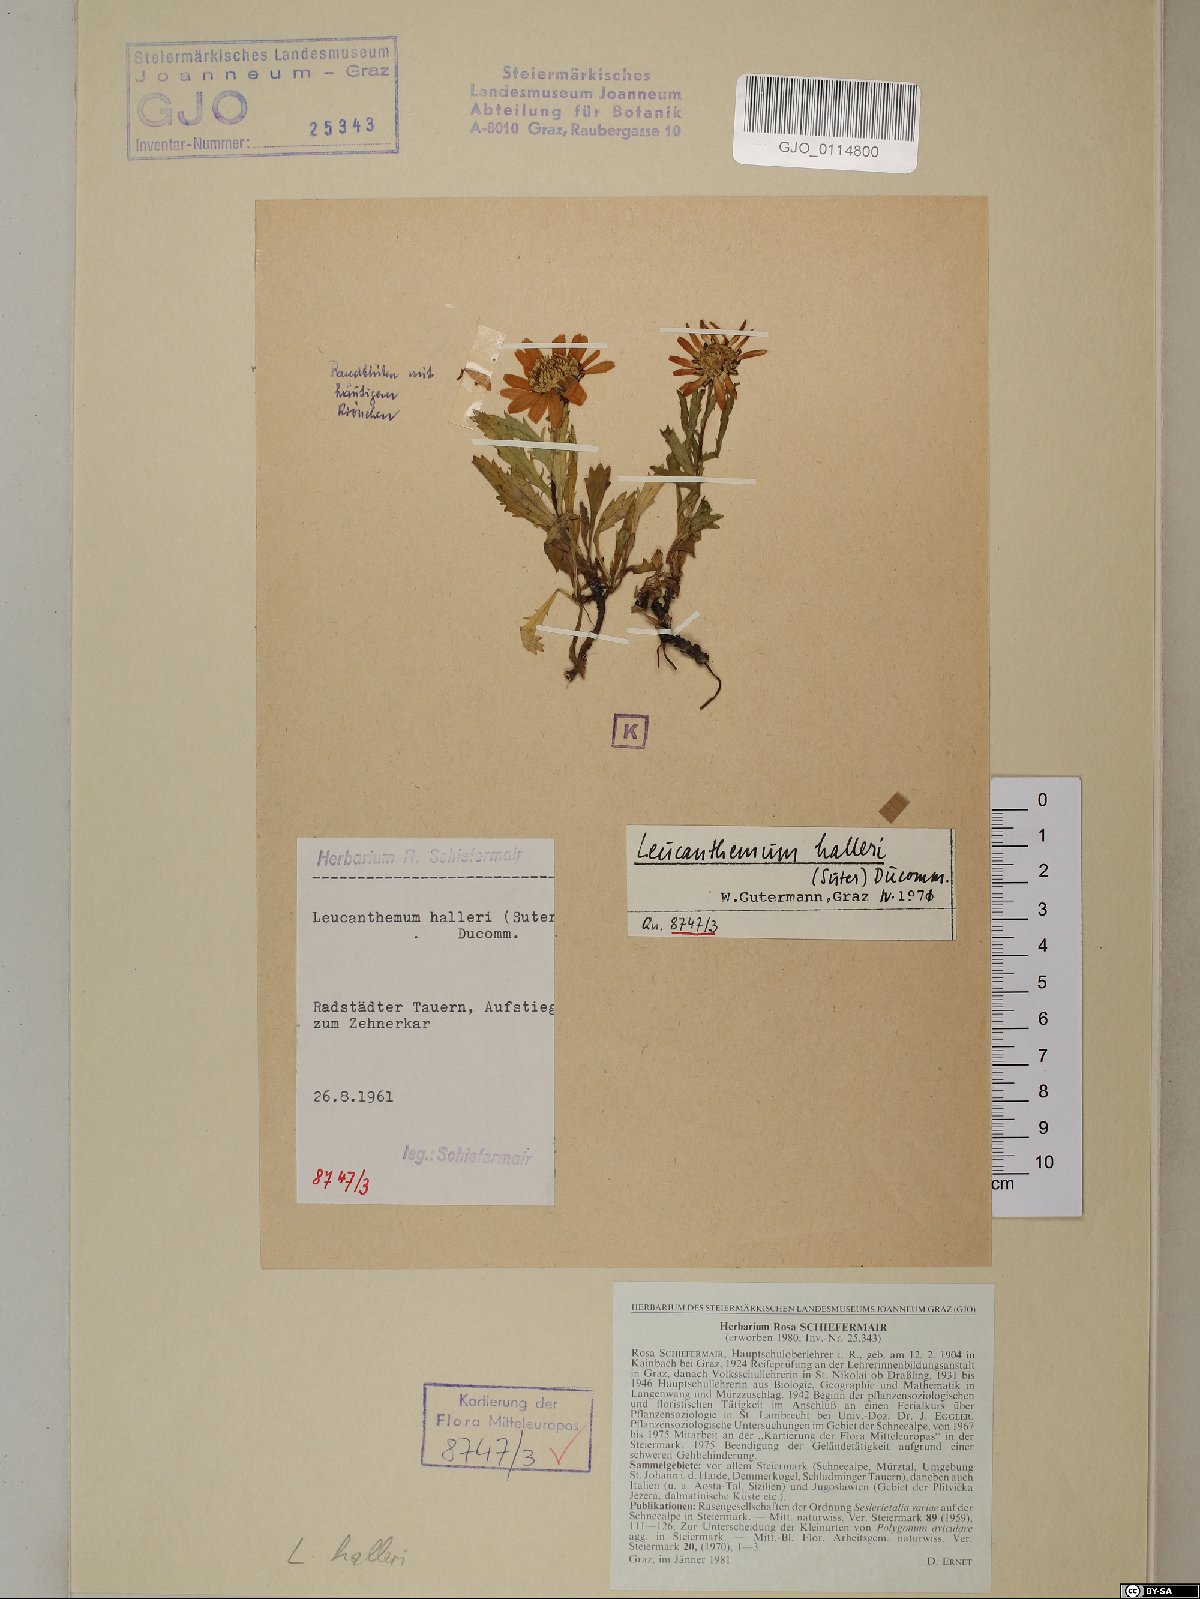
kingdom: Plantae
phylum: Tracheophyta
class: Magnoliopsida
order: Asterales
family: Asteraceae
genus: Leucanthemum
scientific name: Leucanthemum halleri
